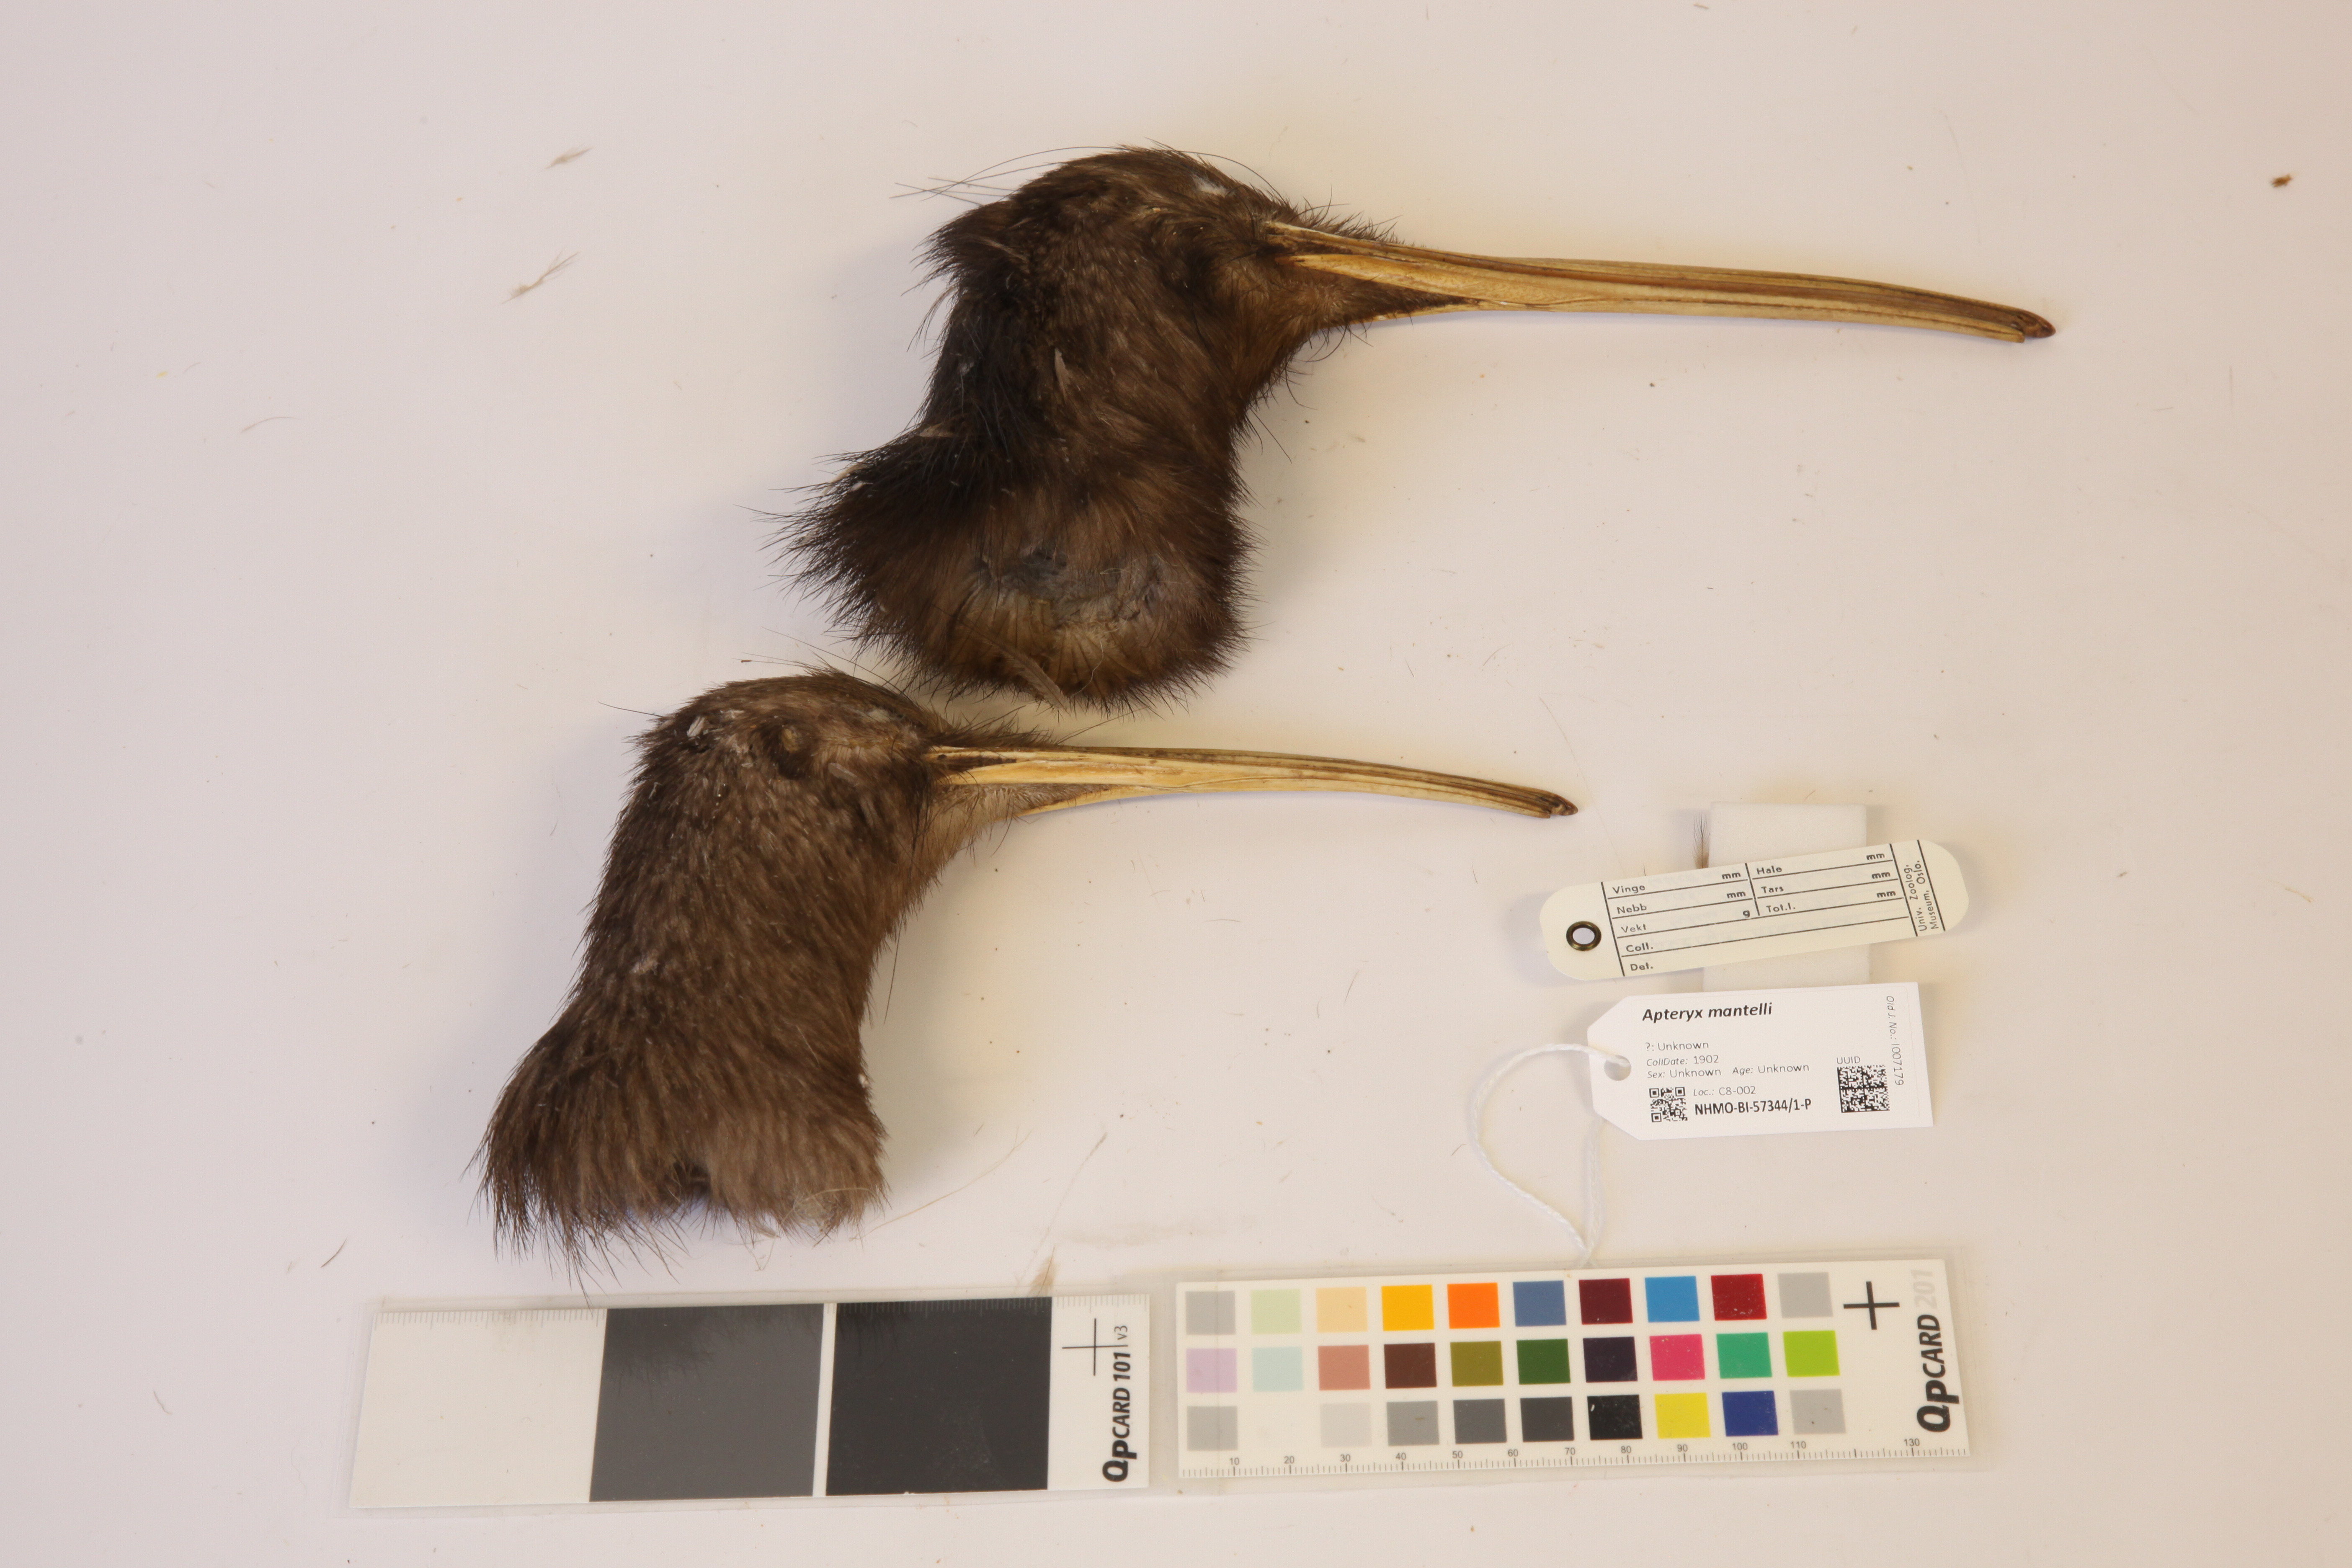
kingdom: Animalia
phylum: Chordata
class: Aves
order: Apterygiformes
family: Apterygidae
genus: Apteryx
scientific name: Apteryx mantelli
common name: North island brown kiwi
